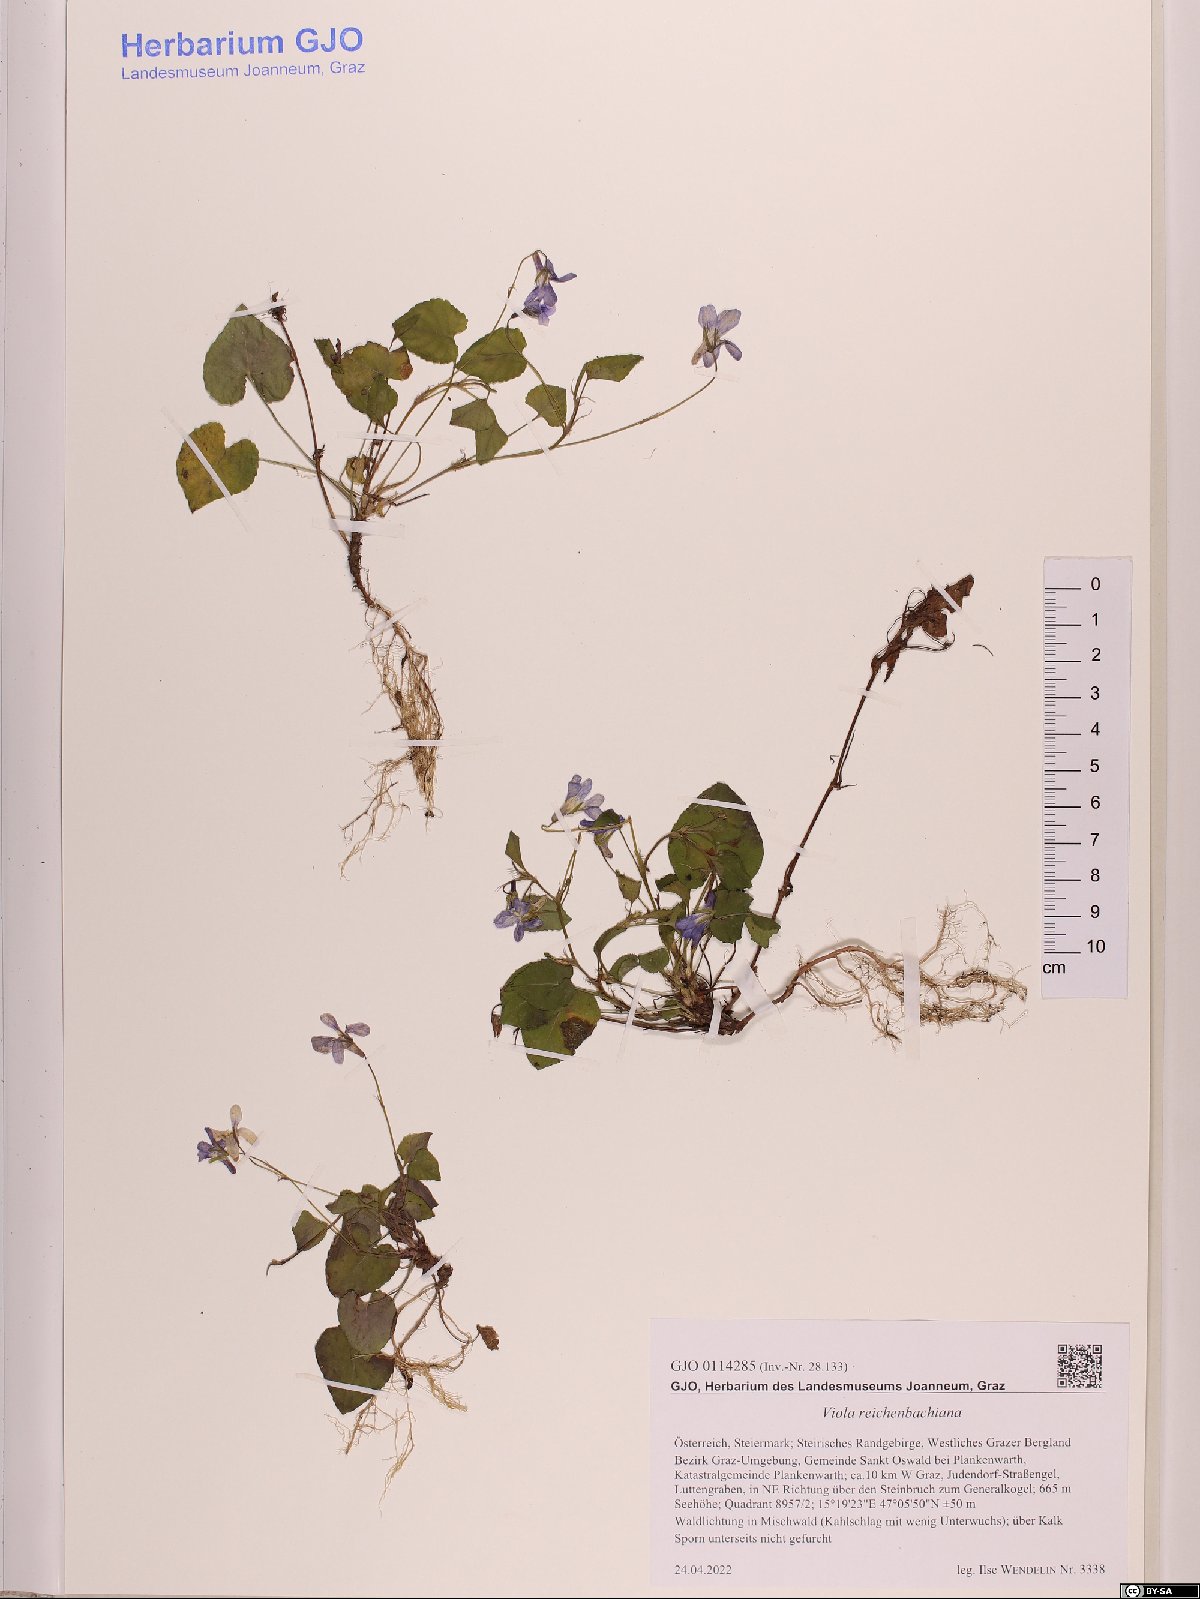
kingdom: Plantae
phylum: Tracheophyta
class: Magnoliopsida
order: Malpighiales
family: Violaceae
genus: Viola
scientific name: Viola reichenbachiana
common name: Early dog-violet
